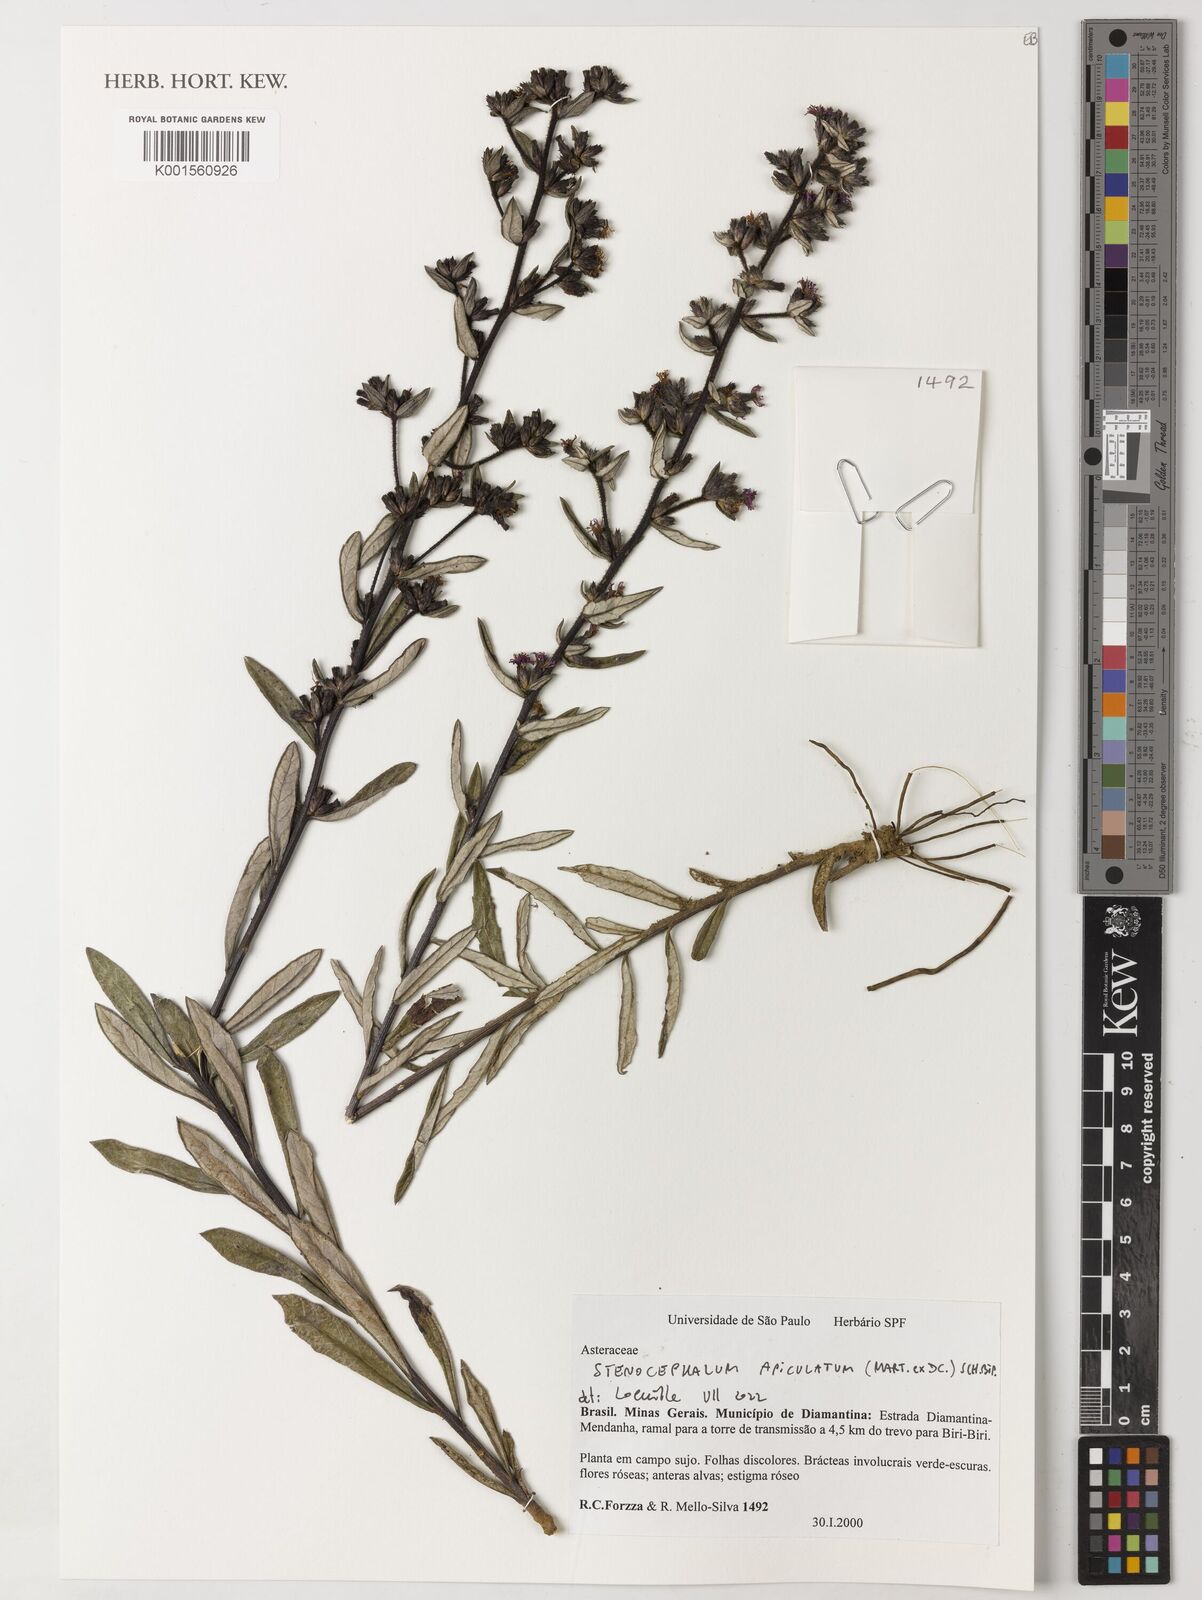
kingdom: Plantae
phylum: Tracheophyta
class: Magnoliopsida
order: Asterales
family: Asteraceae
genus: Stenocephalum
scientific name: Stenocephalum apiculatum
